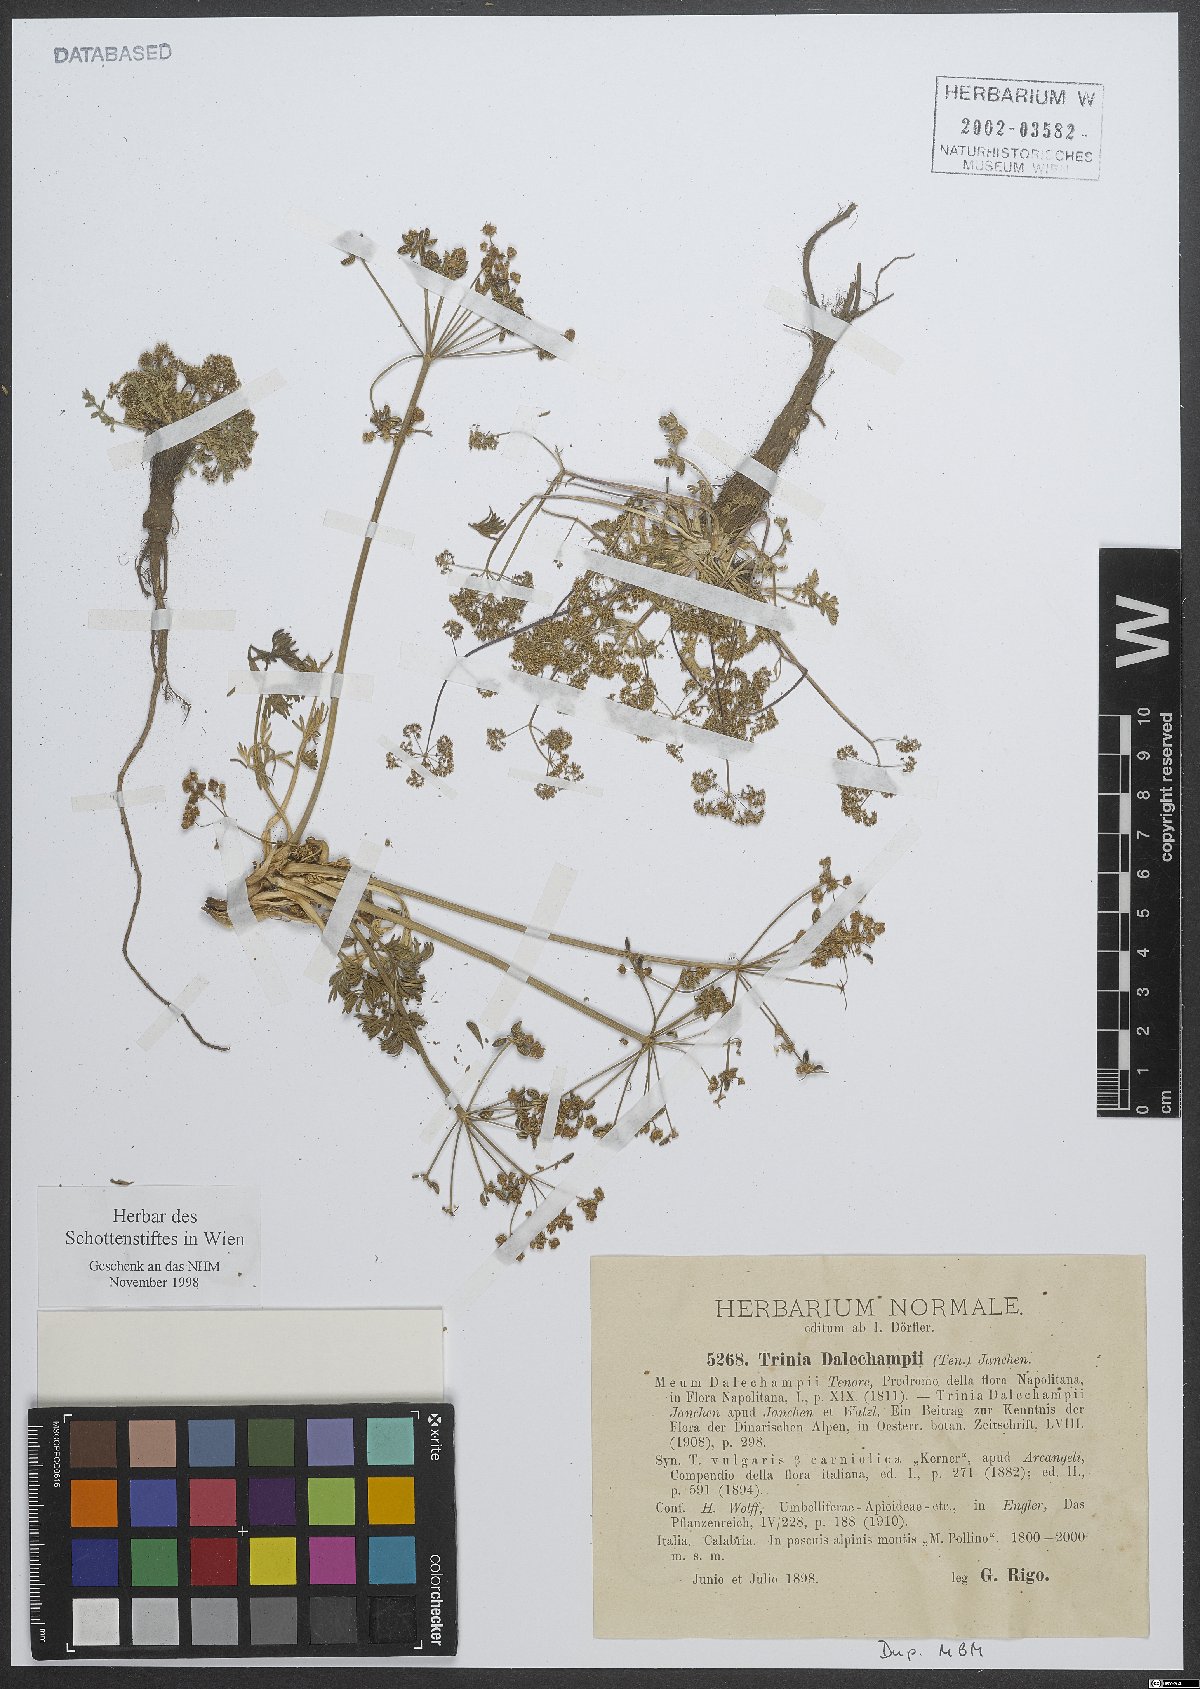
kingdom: Plantae
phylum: Tracheophyta
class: Magnoliopsida
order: Apiales
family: Apiaceae
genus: Trinia
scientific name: Trinia dalechampii
